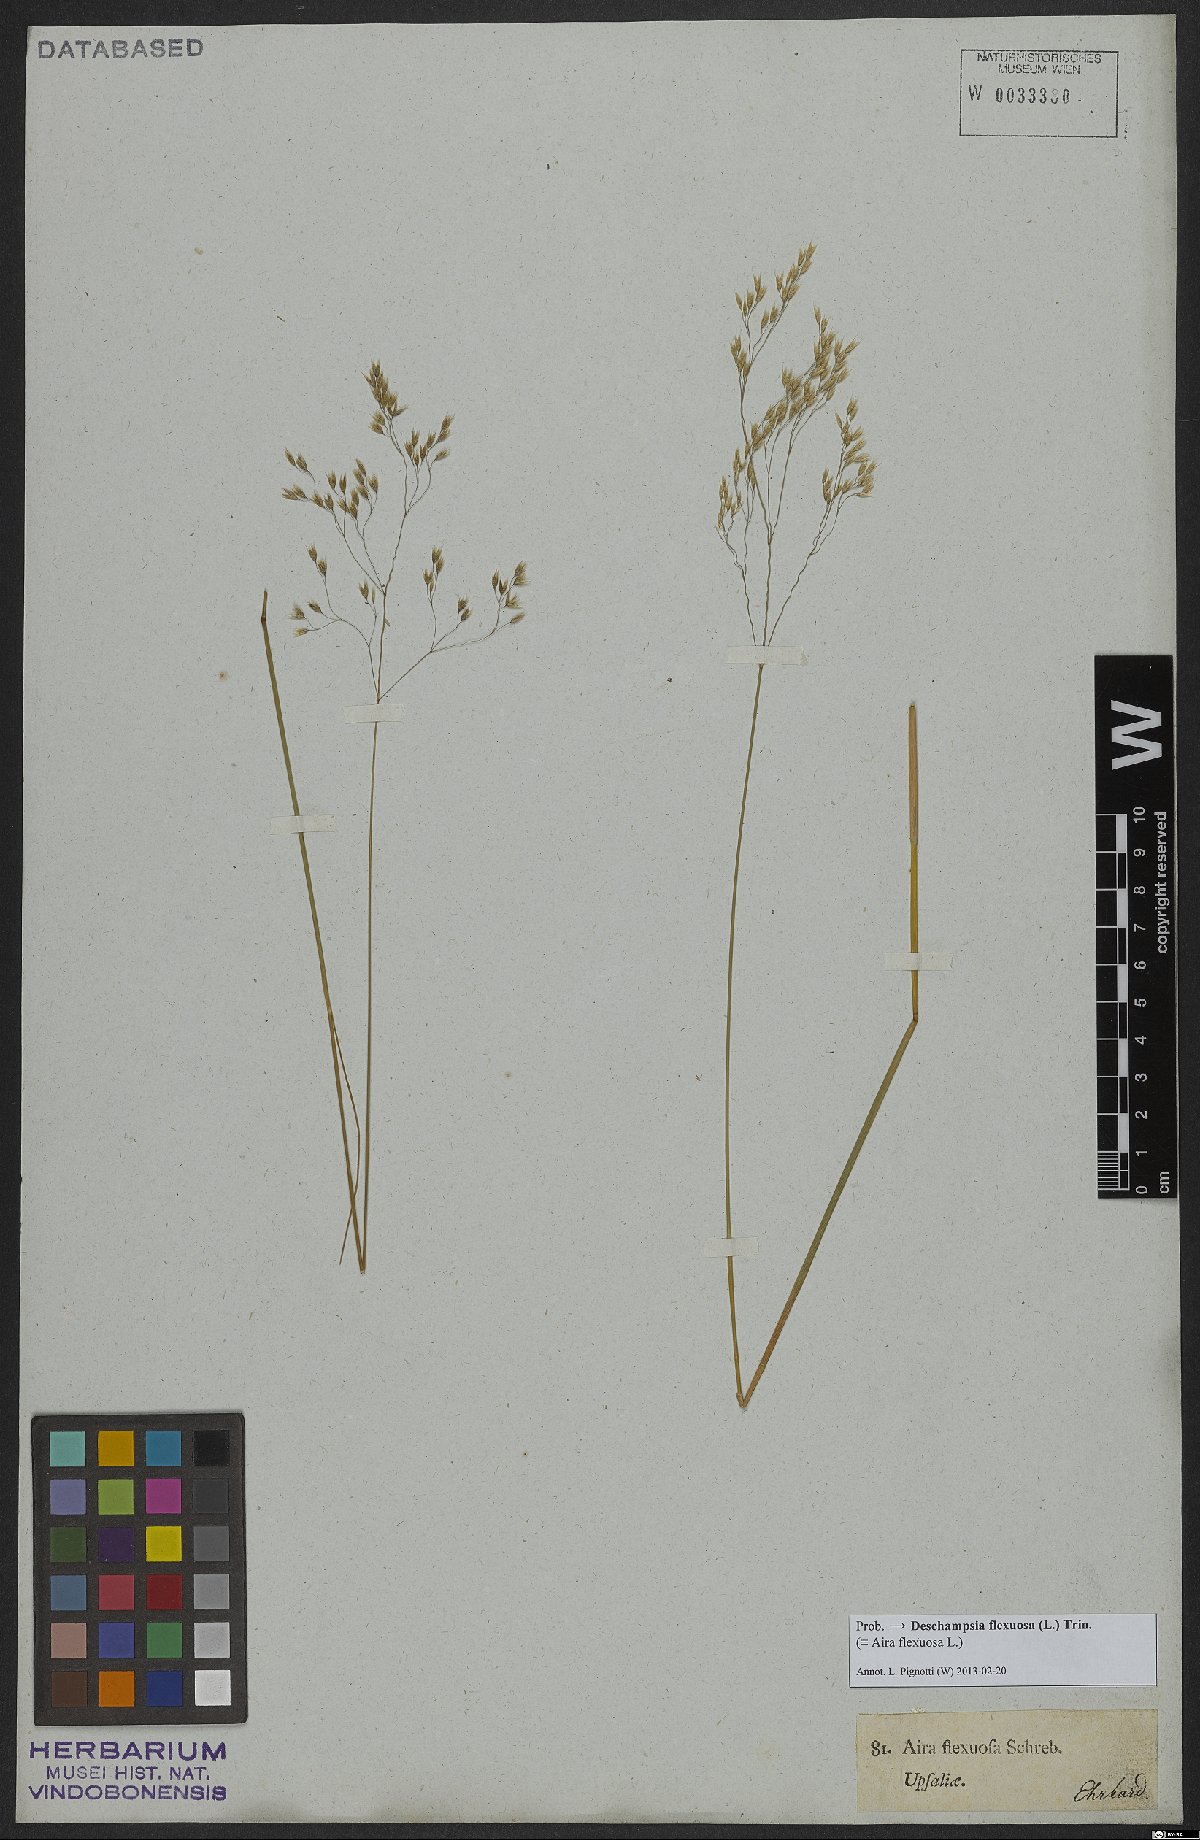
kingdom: Plantae
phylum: Tracheophyta
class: Liliopsida
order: Poales
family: Poaceae
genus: Avenella
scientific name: Avenella flexuosa
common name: Wavy hairgrass
